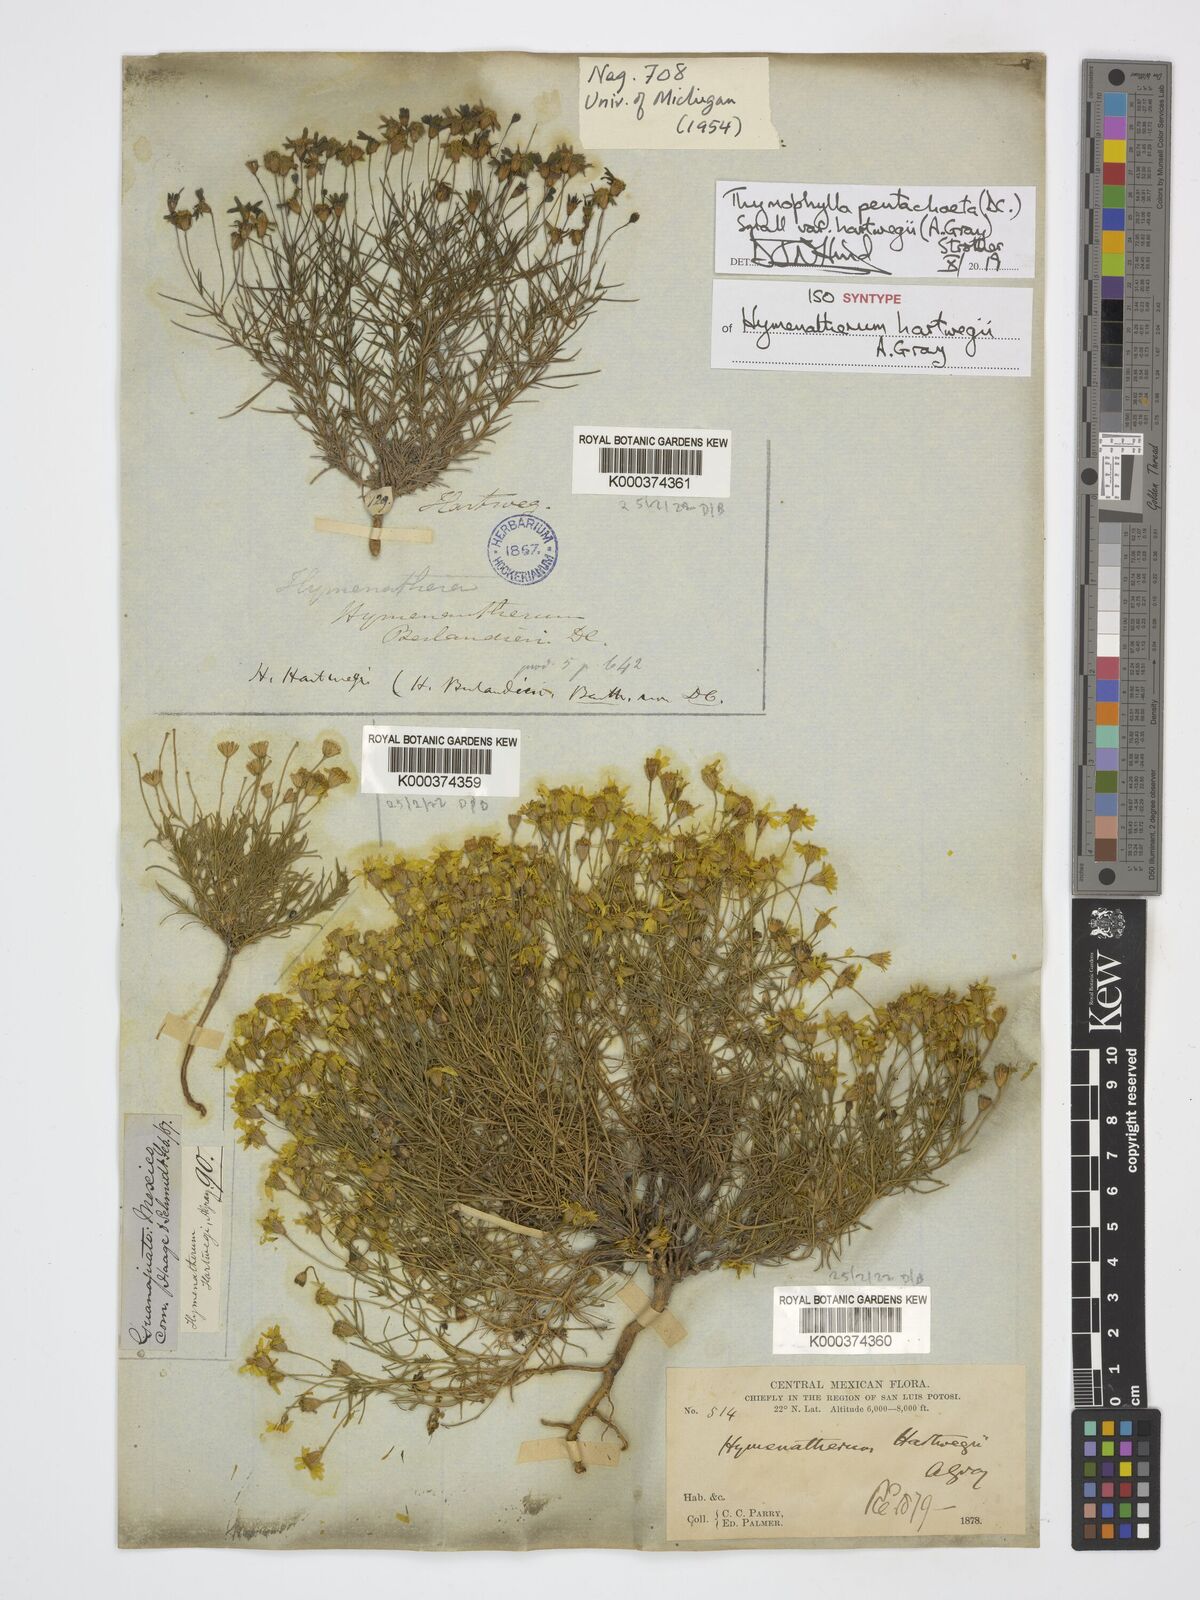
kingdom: Plantae
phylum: Tracheophyta
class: Magnoliopsida
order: Asterales
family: Asteraceae
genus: Thymophylla
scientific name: Thymophylla pentachaeta
